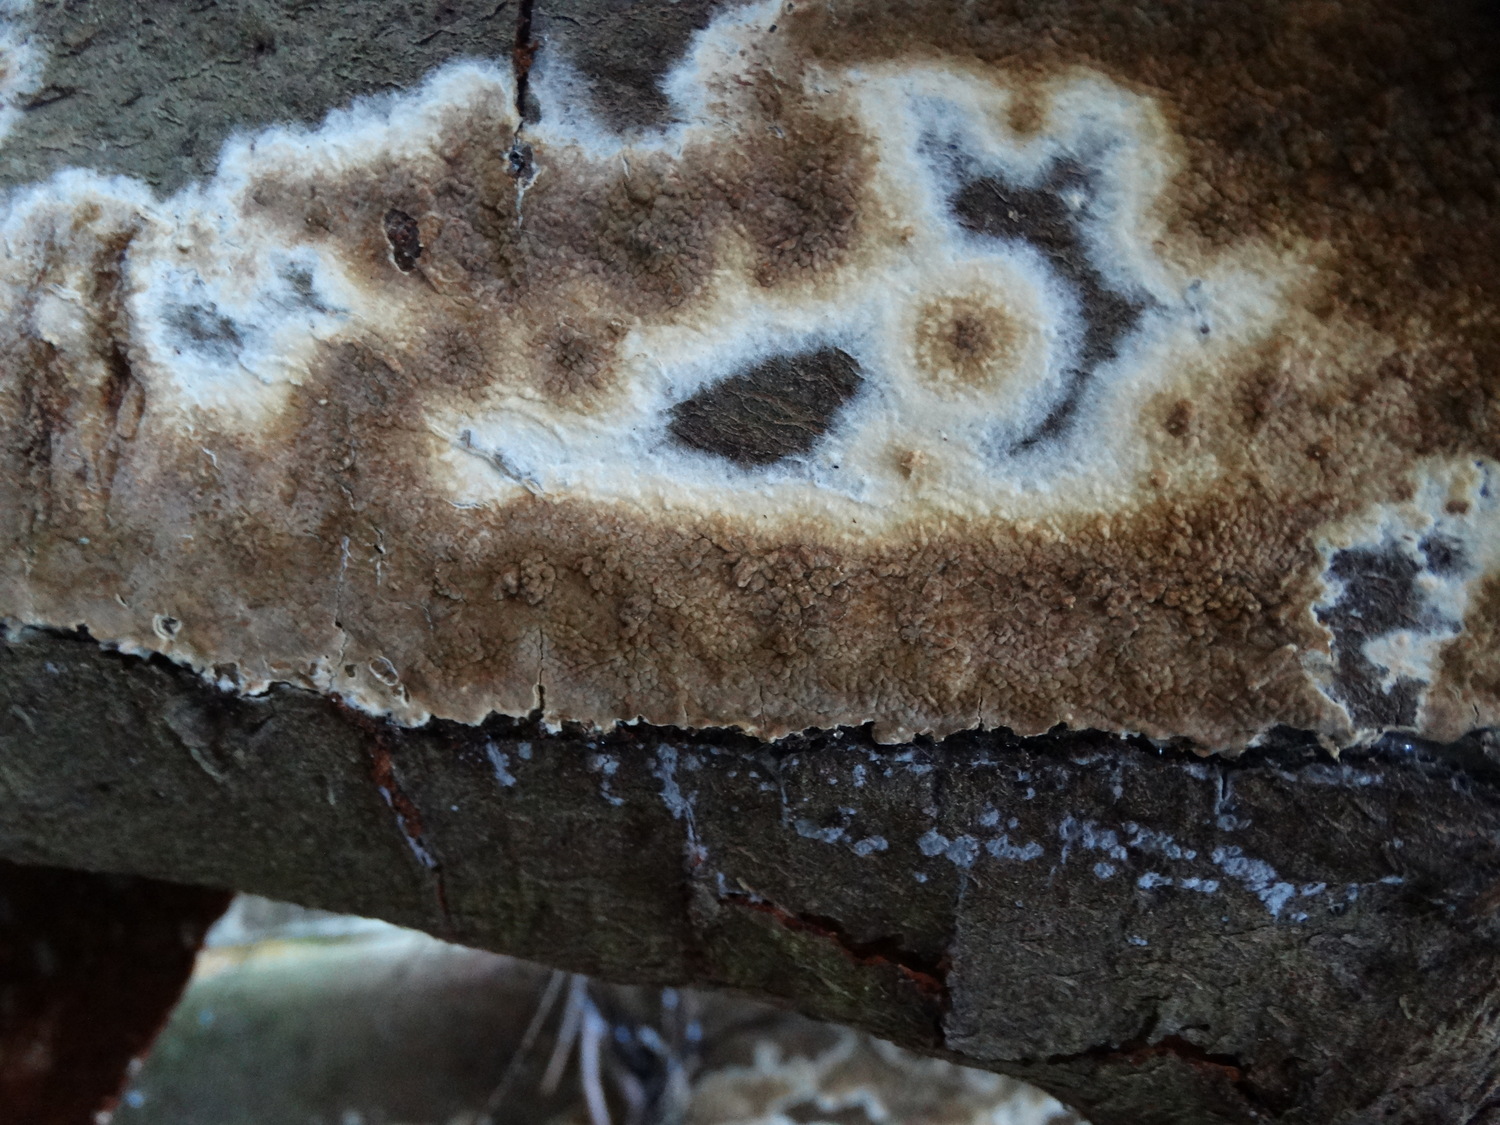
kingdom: Fungi
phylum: Basidiomycota
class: Agaricomycetes
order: Boletales
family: Coniophoraceae
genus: Coniophora
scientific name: Coniophora puteana
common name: gul tømmersvamp
